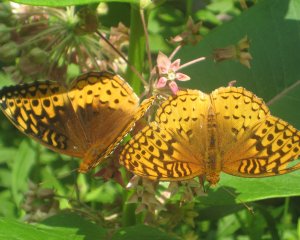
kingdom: Animalia
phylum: Arthropoda
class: Insecta
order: Lepidoptera
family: Nymphalidae
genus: Speyeria
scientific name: Speyeria cybele
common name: Great Spangled Fritillary
